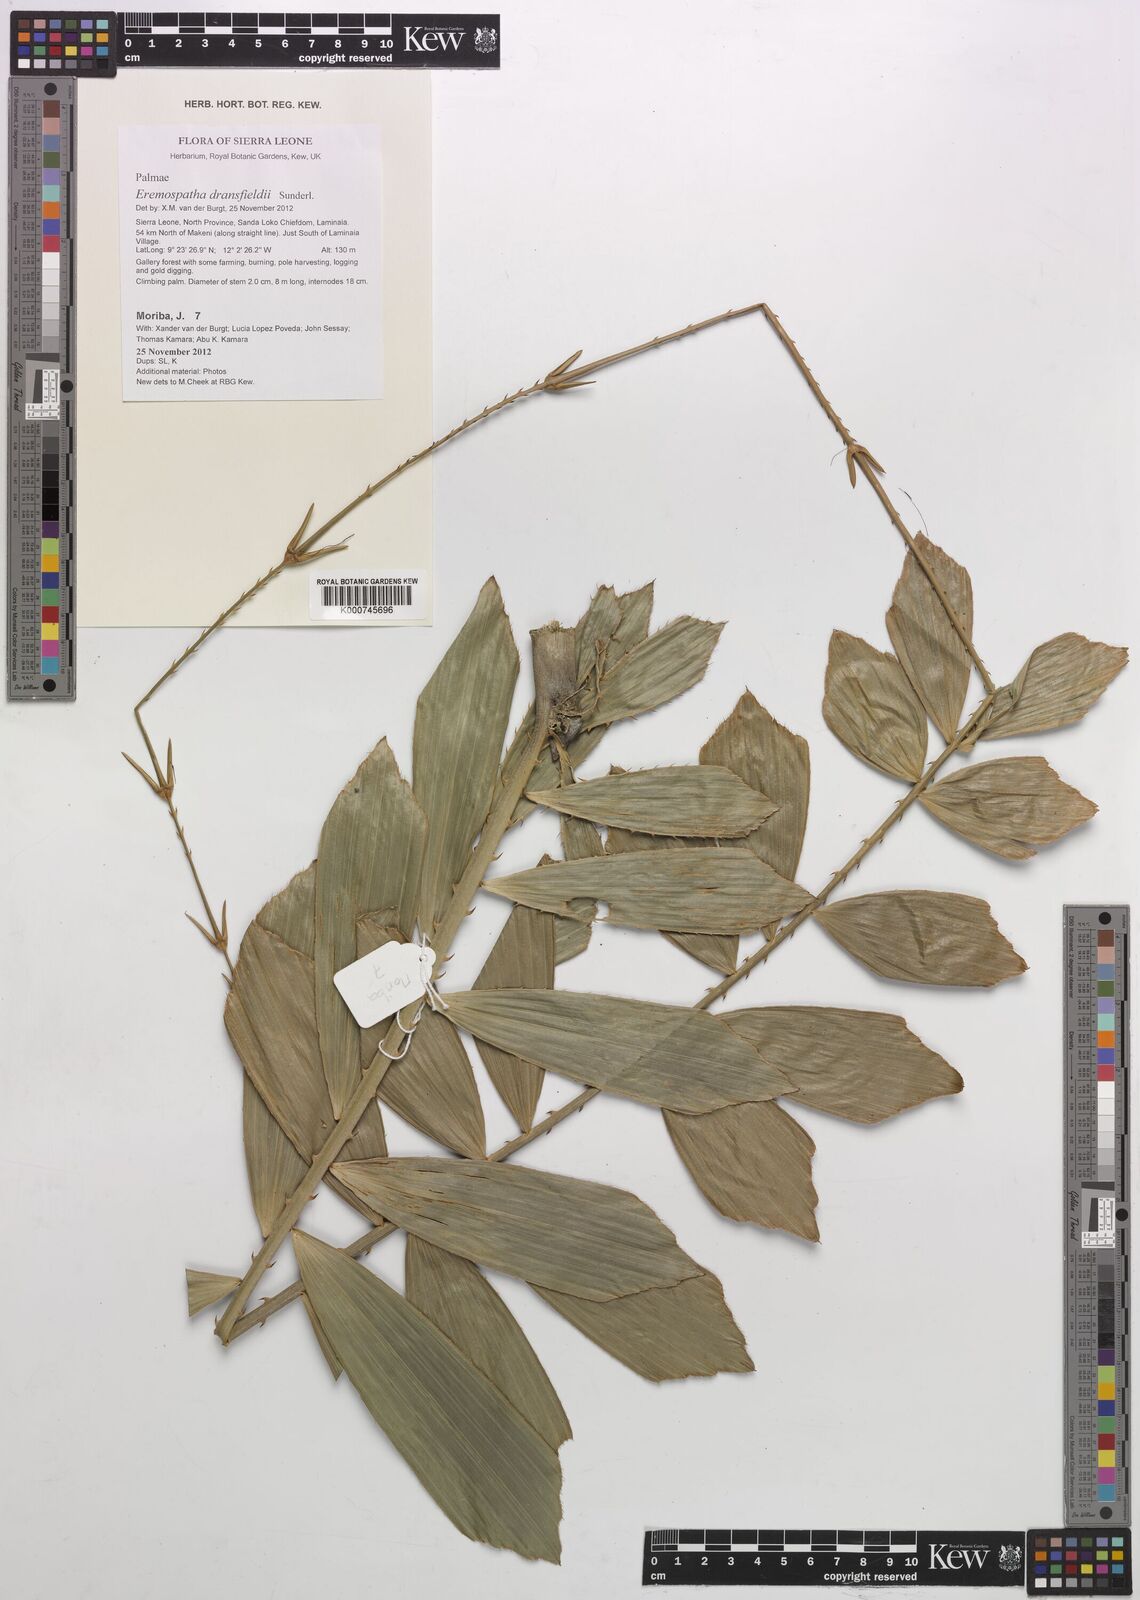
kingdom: Plantae
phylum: Tracheophyta
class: Liliopsida
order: Arecales
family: Arecaceae
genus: Eremospatha
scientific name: Eremospatha dransfieldii
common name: Rattan
